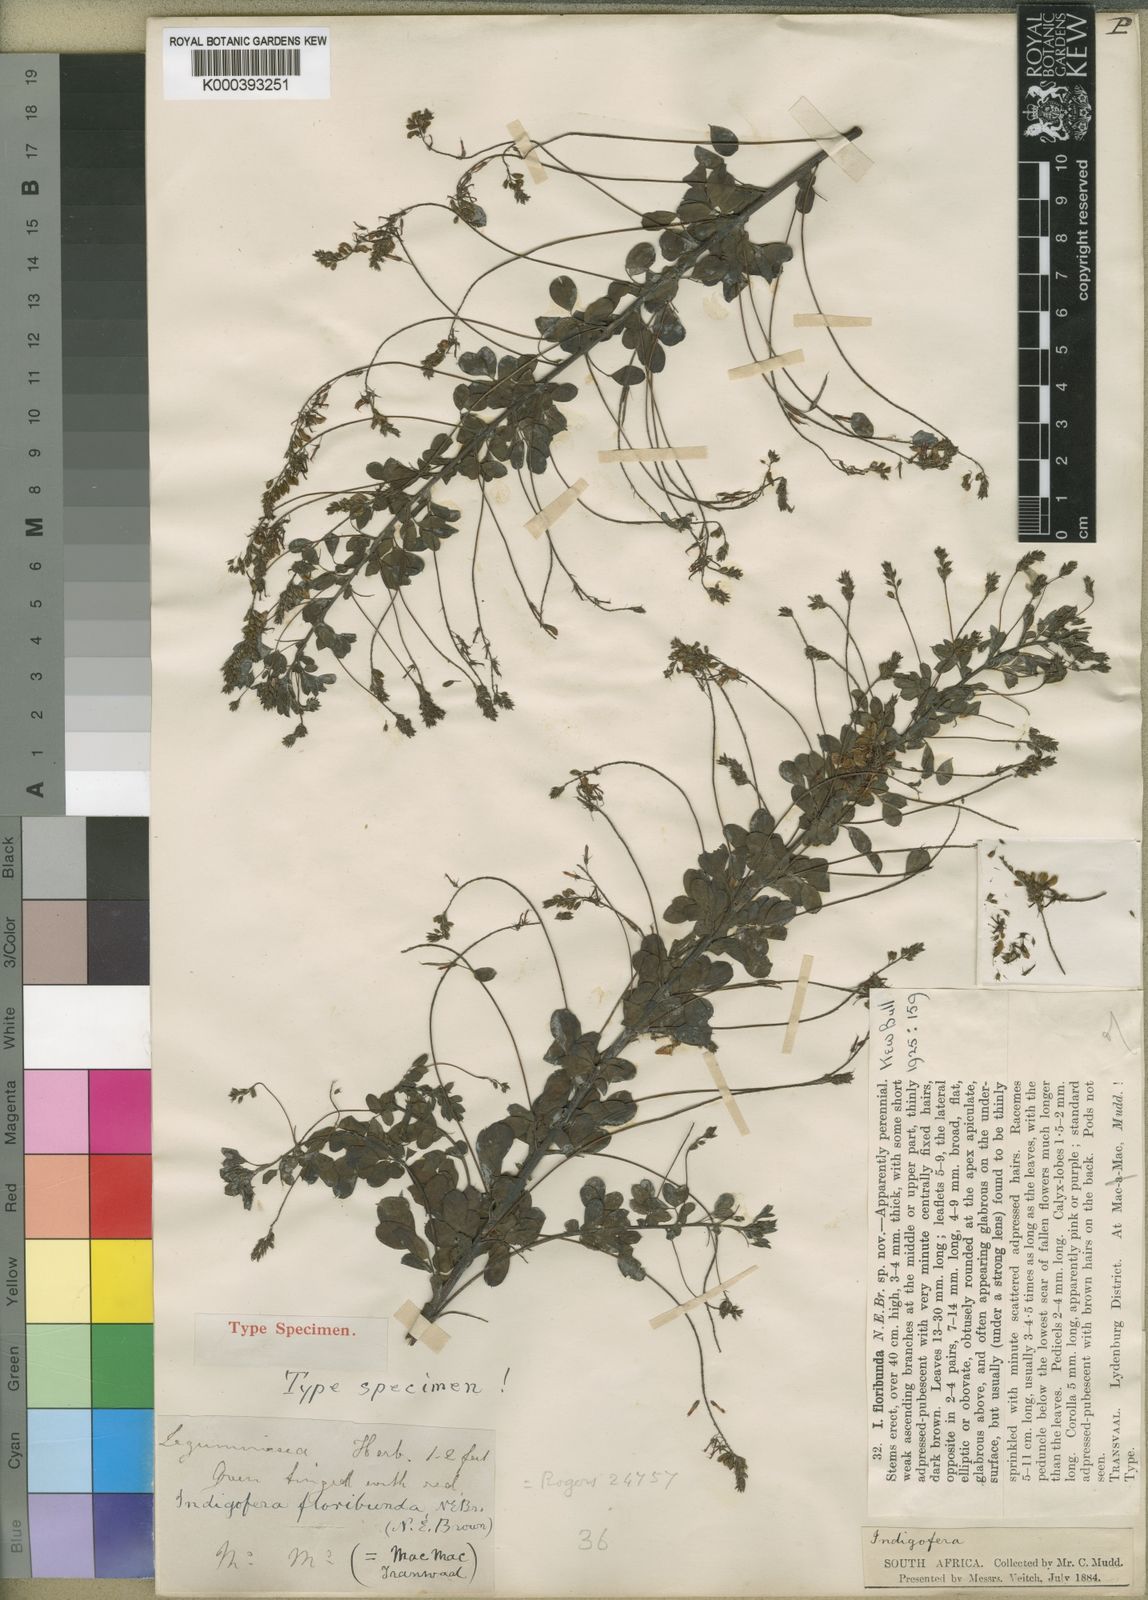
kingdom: Plantae
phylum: Tracheophyta
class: Magnoliopsida
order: Fabales
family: Fabaceae
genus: Indigofera
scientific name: Indigofera floribunda
